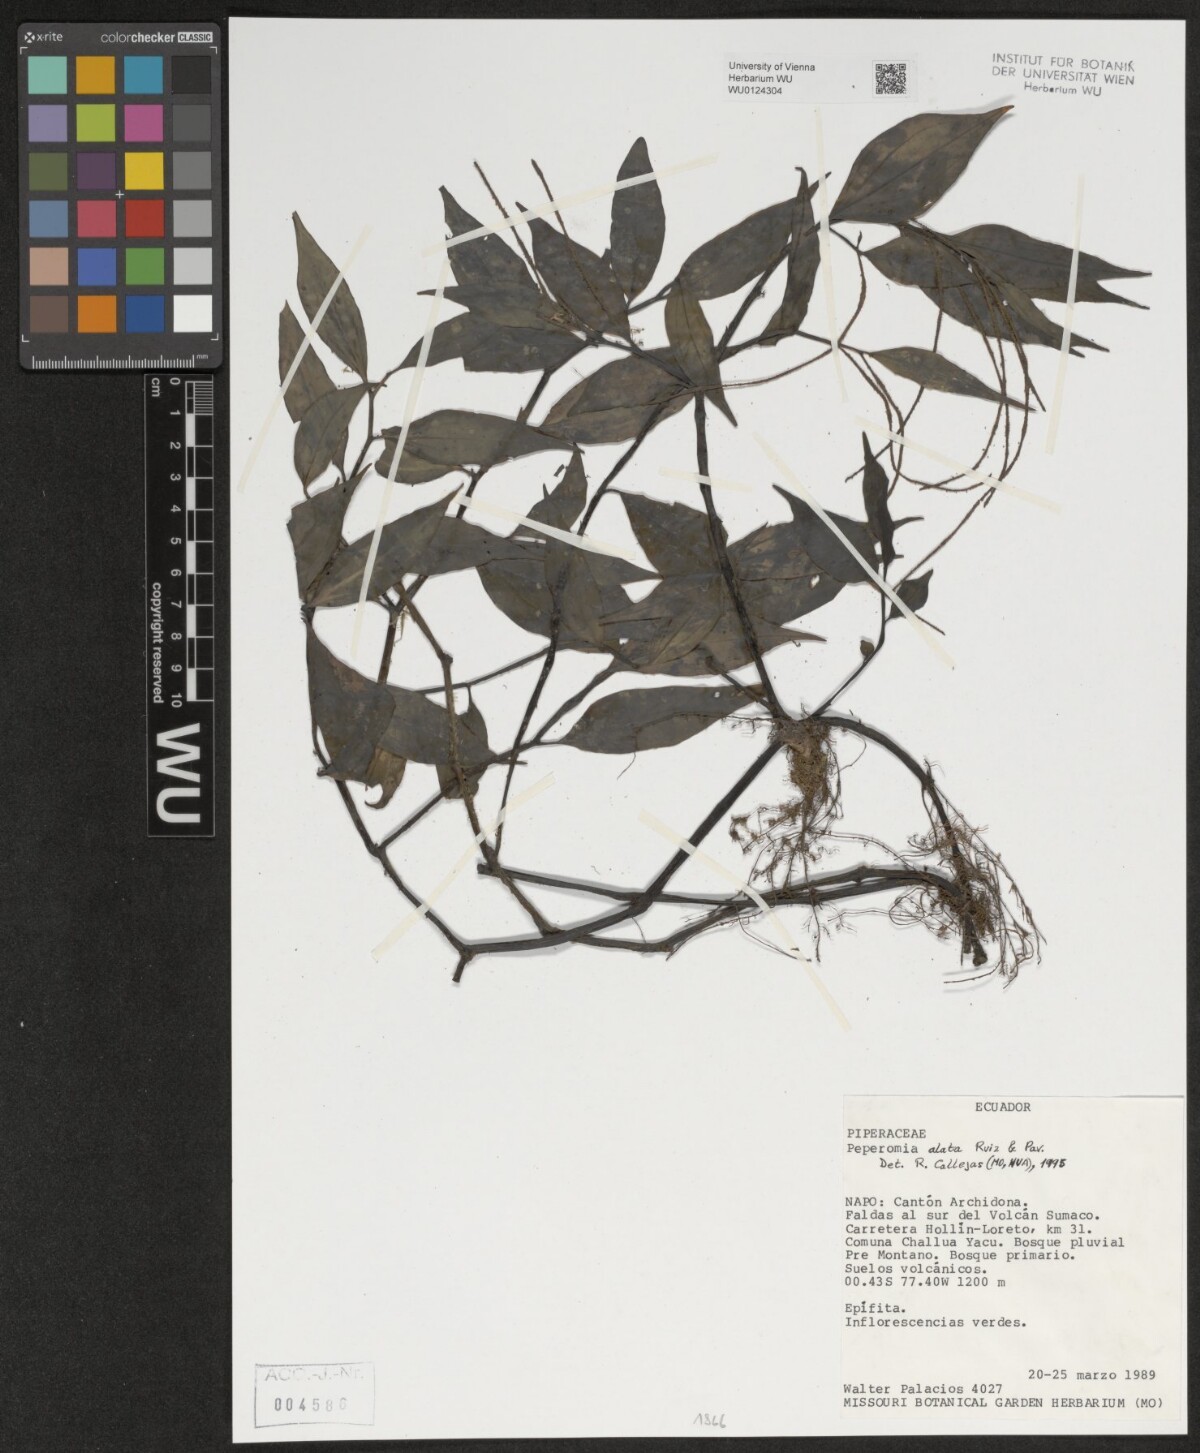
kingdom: Plantae
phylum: Tracheophyta
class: Magnoliopsida
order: Piperales
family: Piperaceae
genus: Peperomia
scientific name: Peperomia alata
